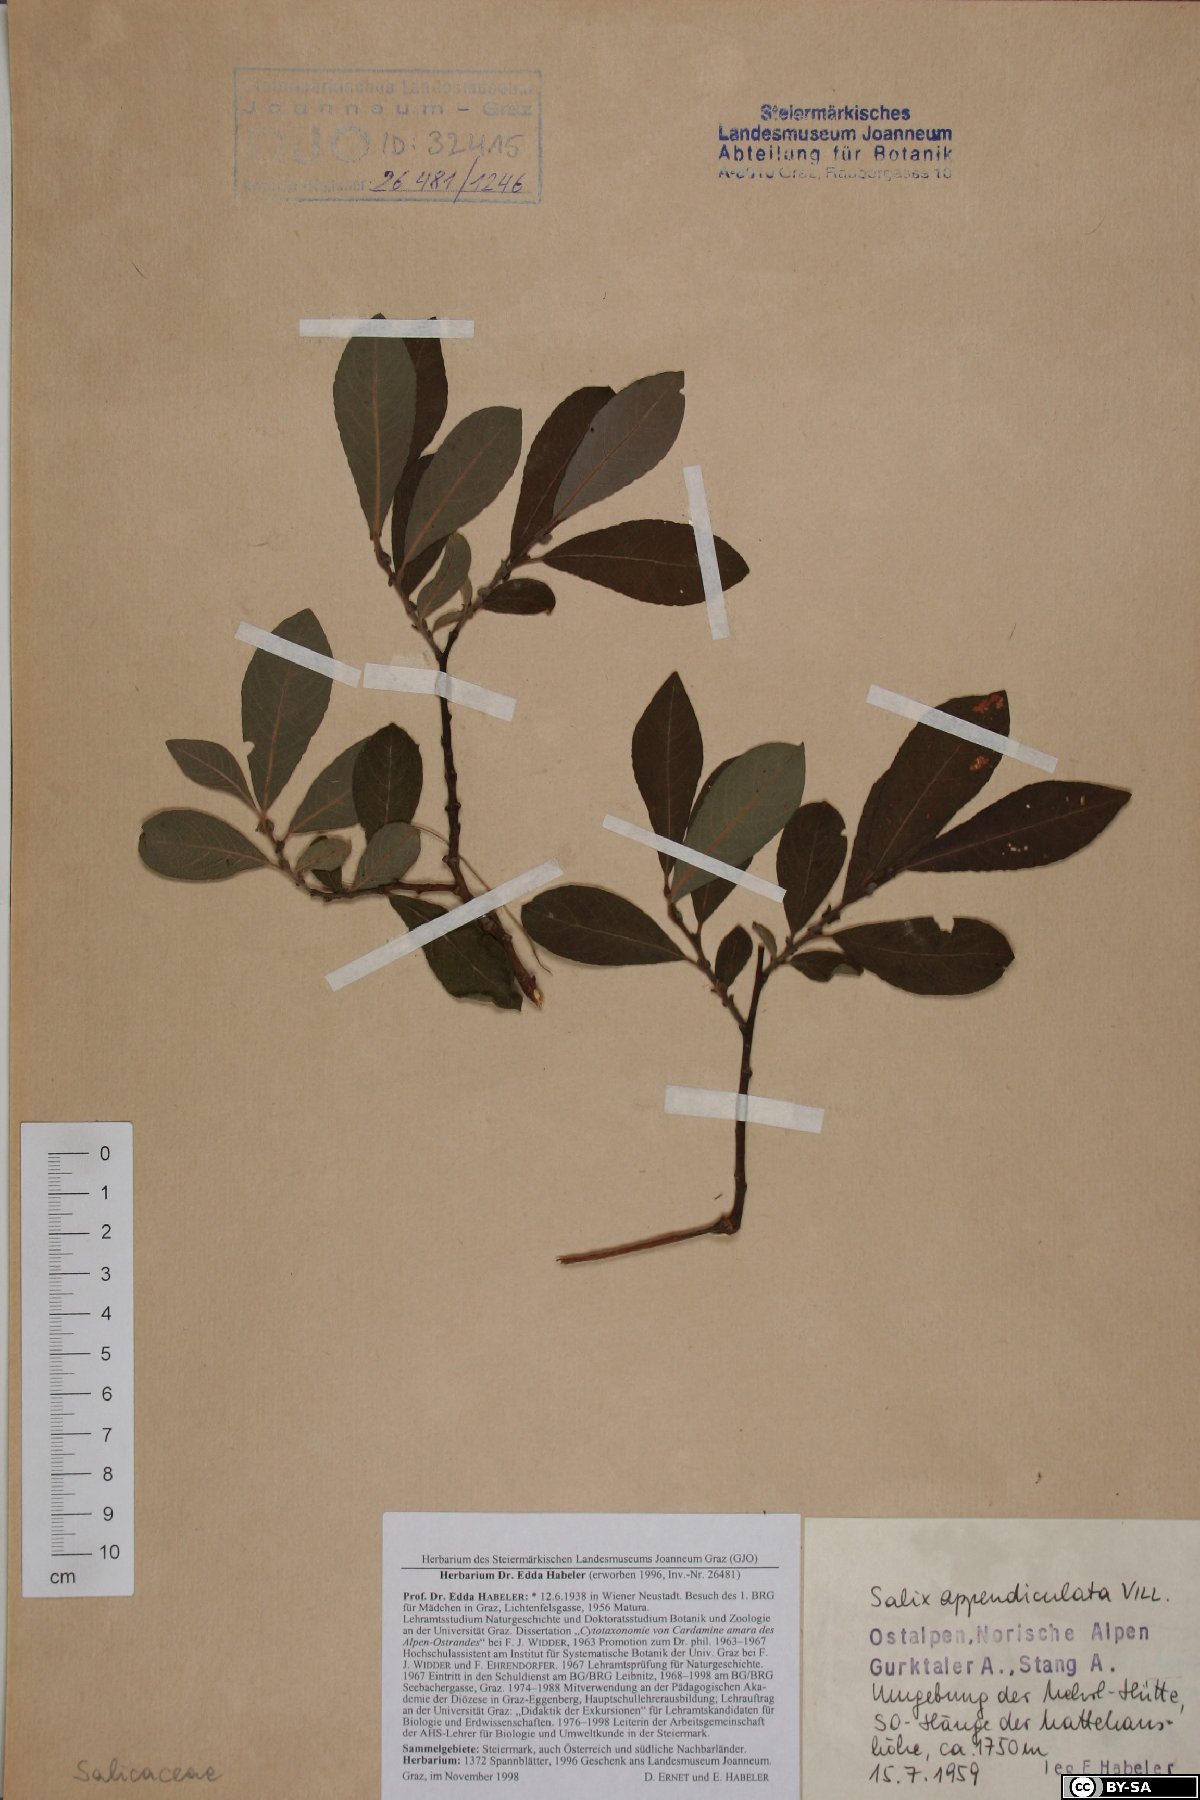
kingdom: Plantae
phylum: Tracheophyta
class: Magnoliopsida
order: Malpighiales
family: Salicaceae
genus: Salix
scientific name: Salix appendiculata
